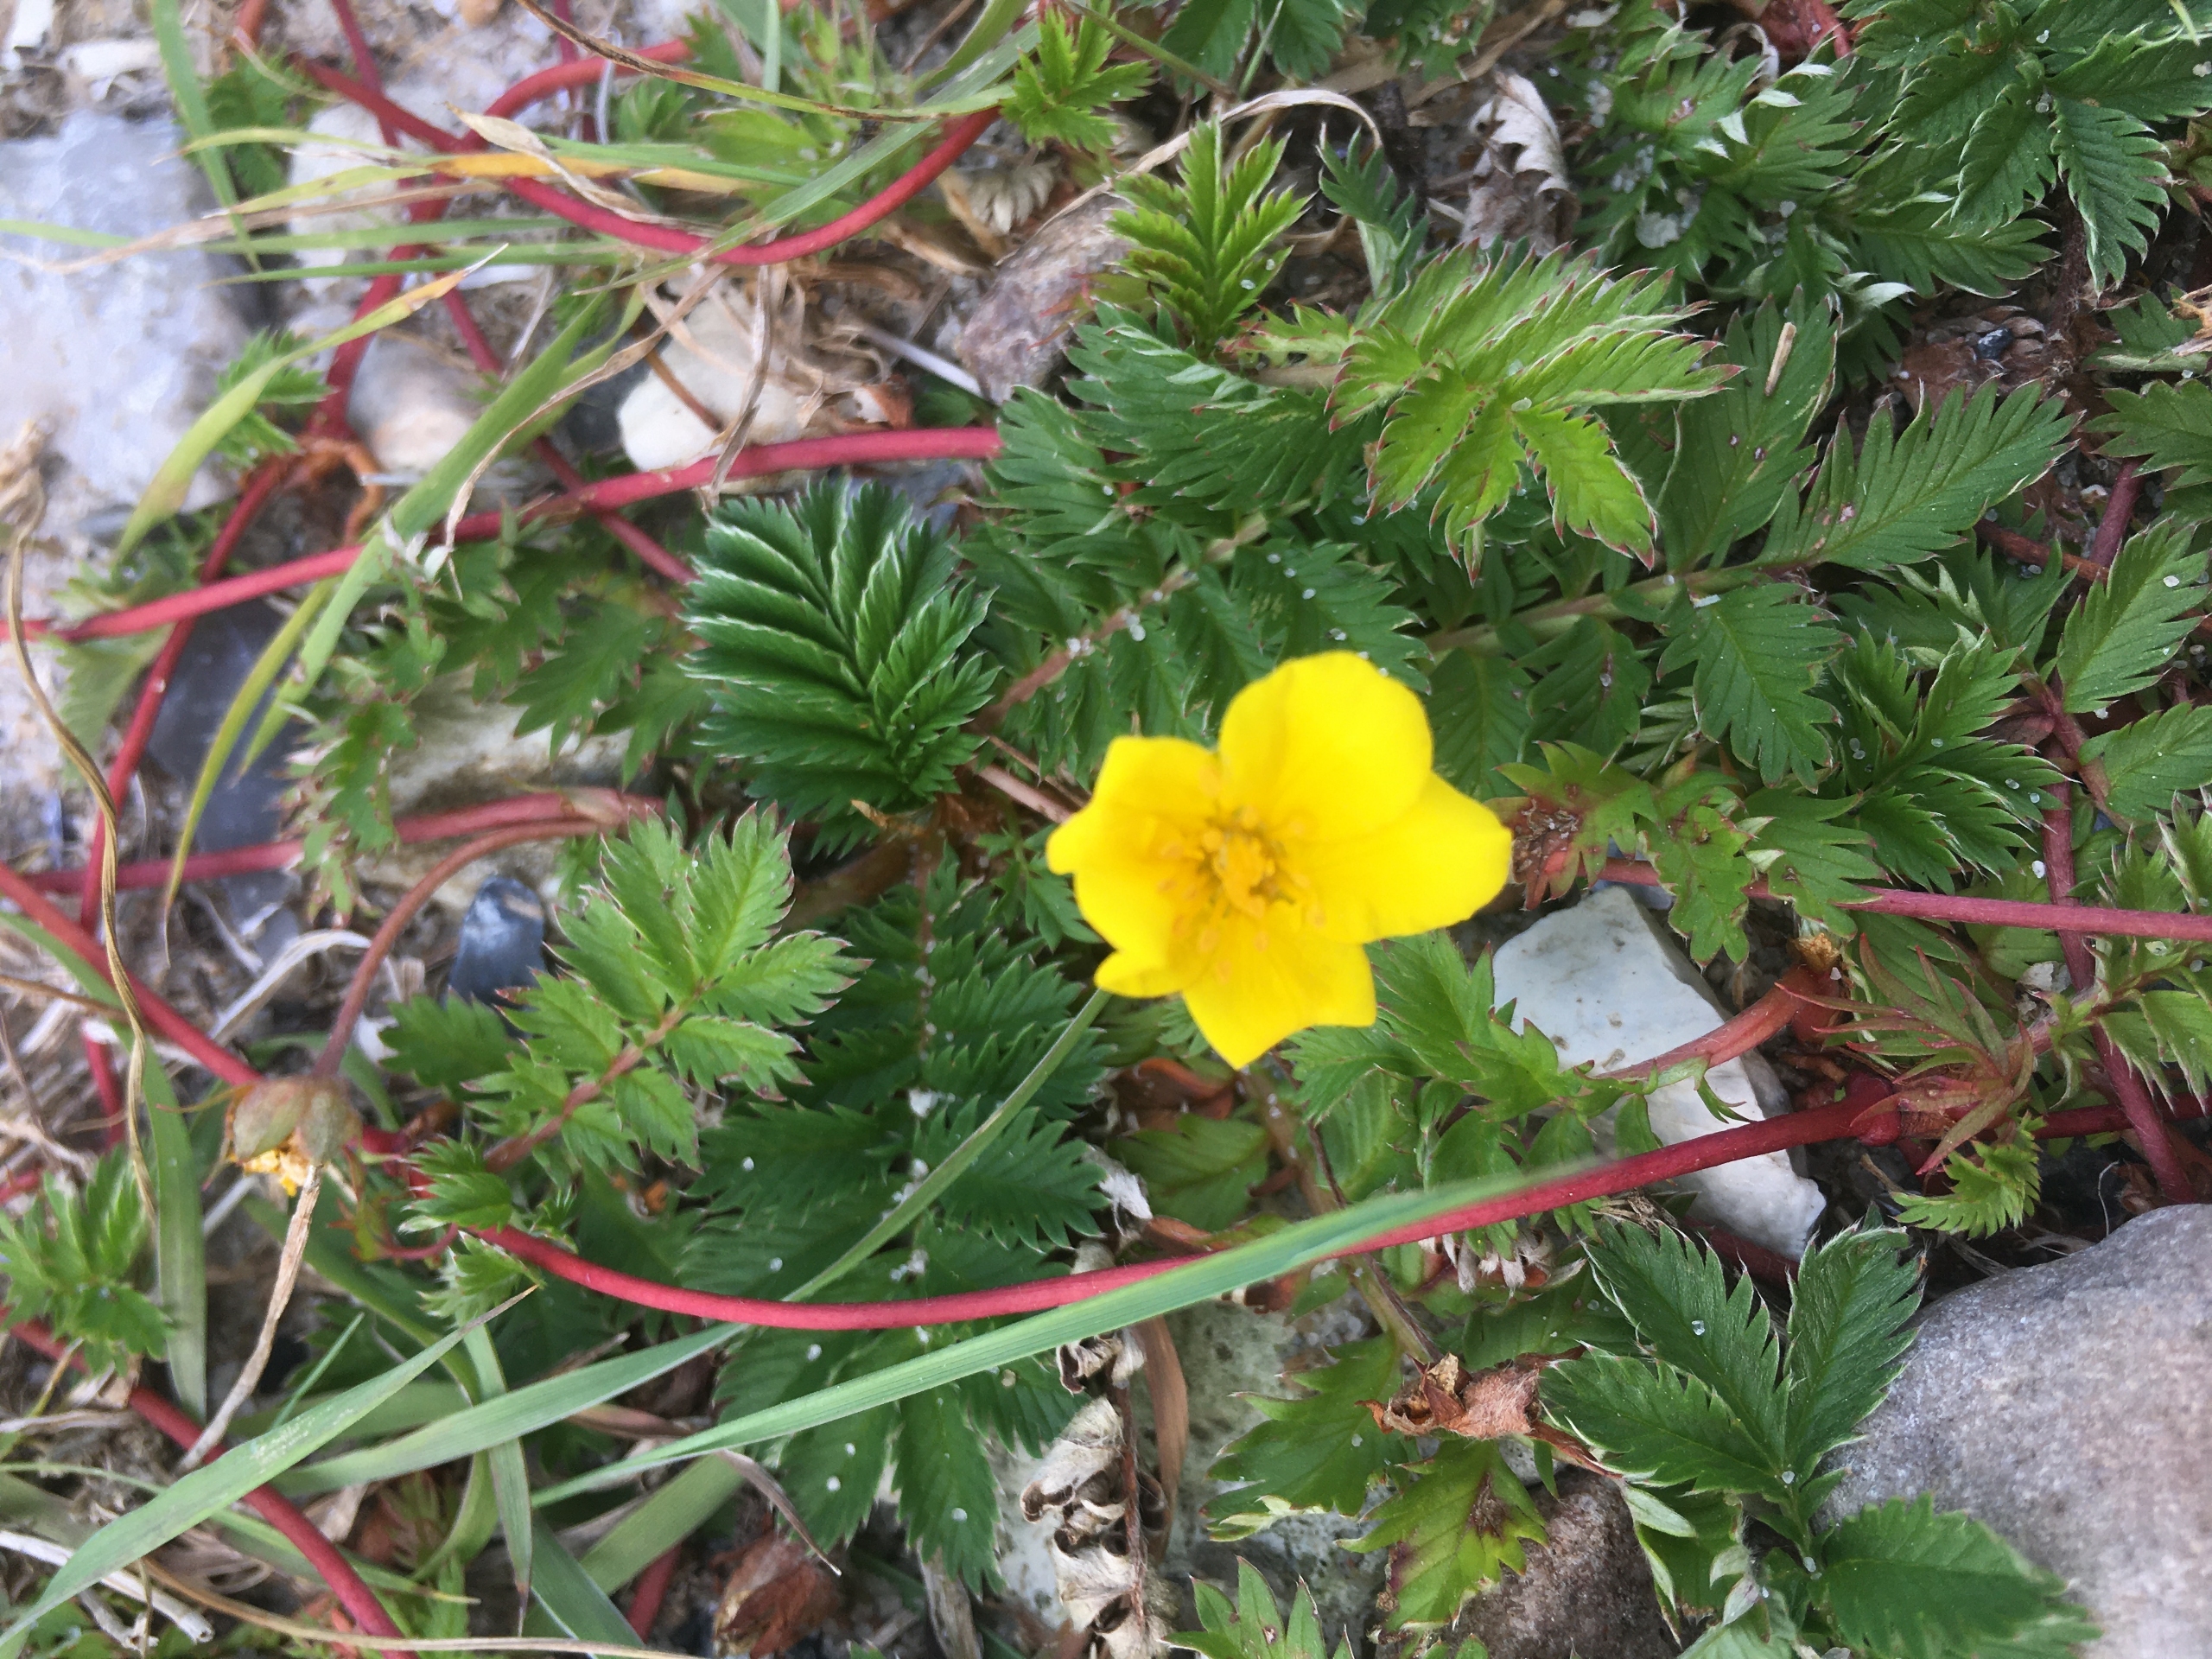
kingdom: Plantae
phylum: Tracheophyta
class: Magnoliopsida
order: Rosales
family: Rosaceae
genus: Argentina
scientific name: Argentina anserina
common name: Gåsepotentil
